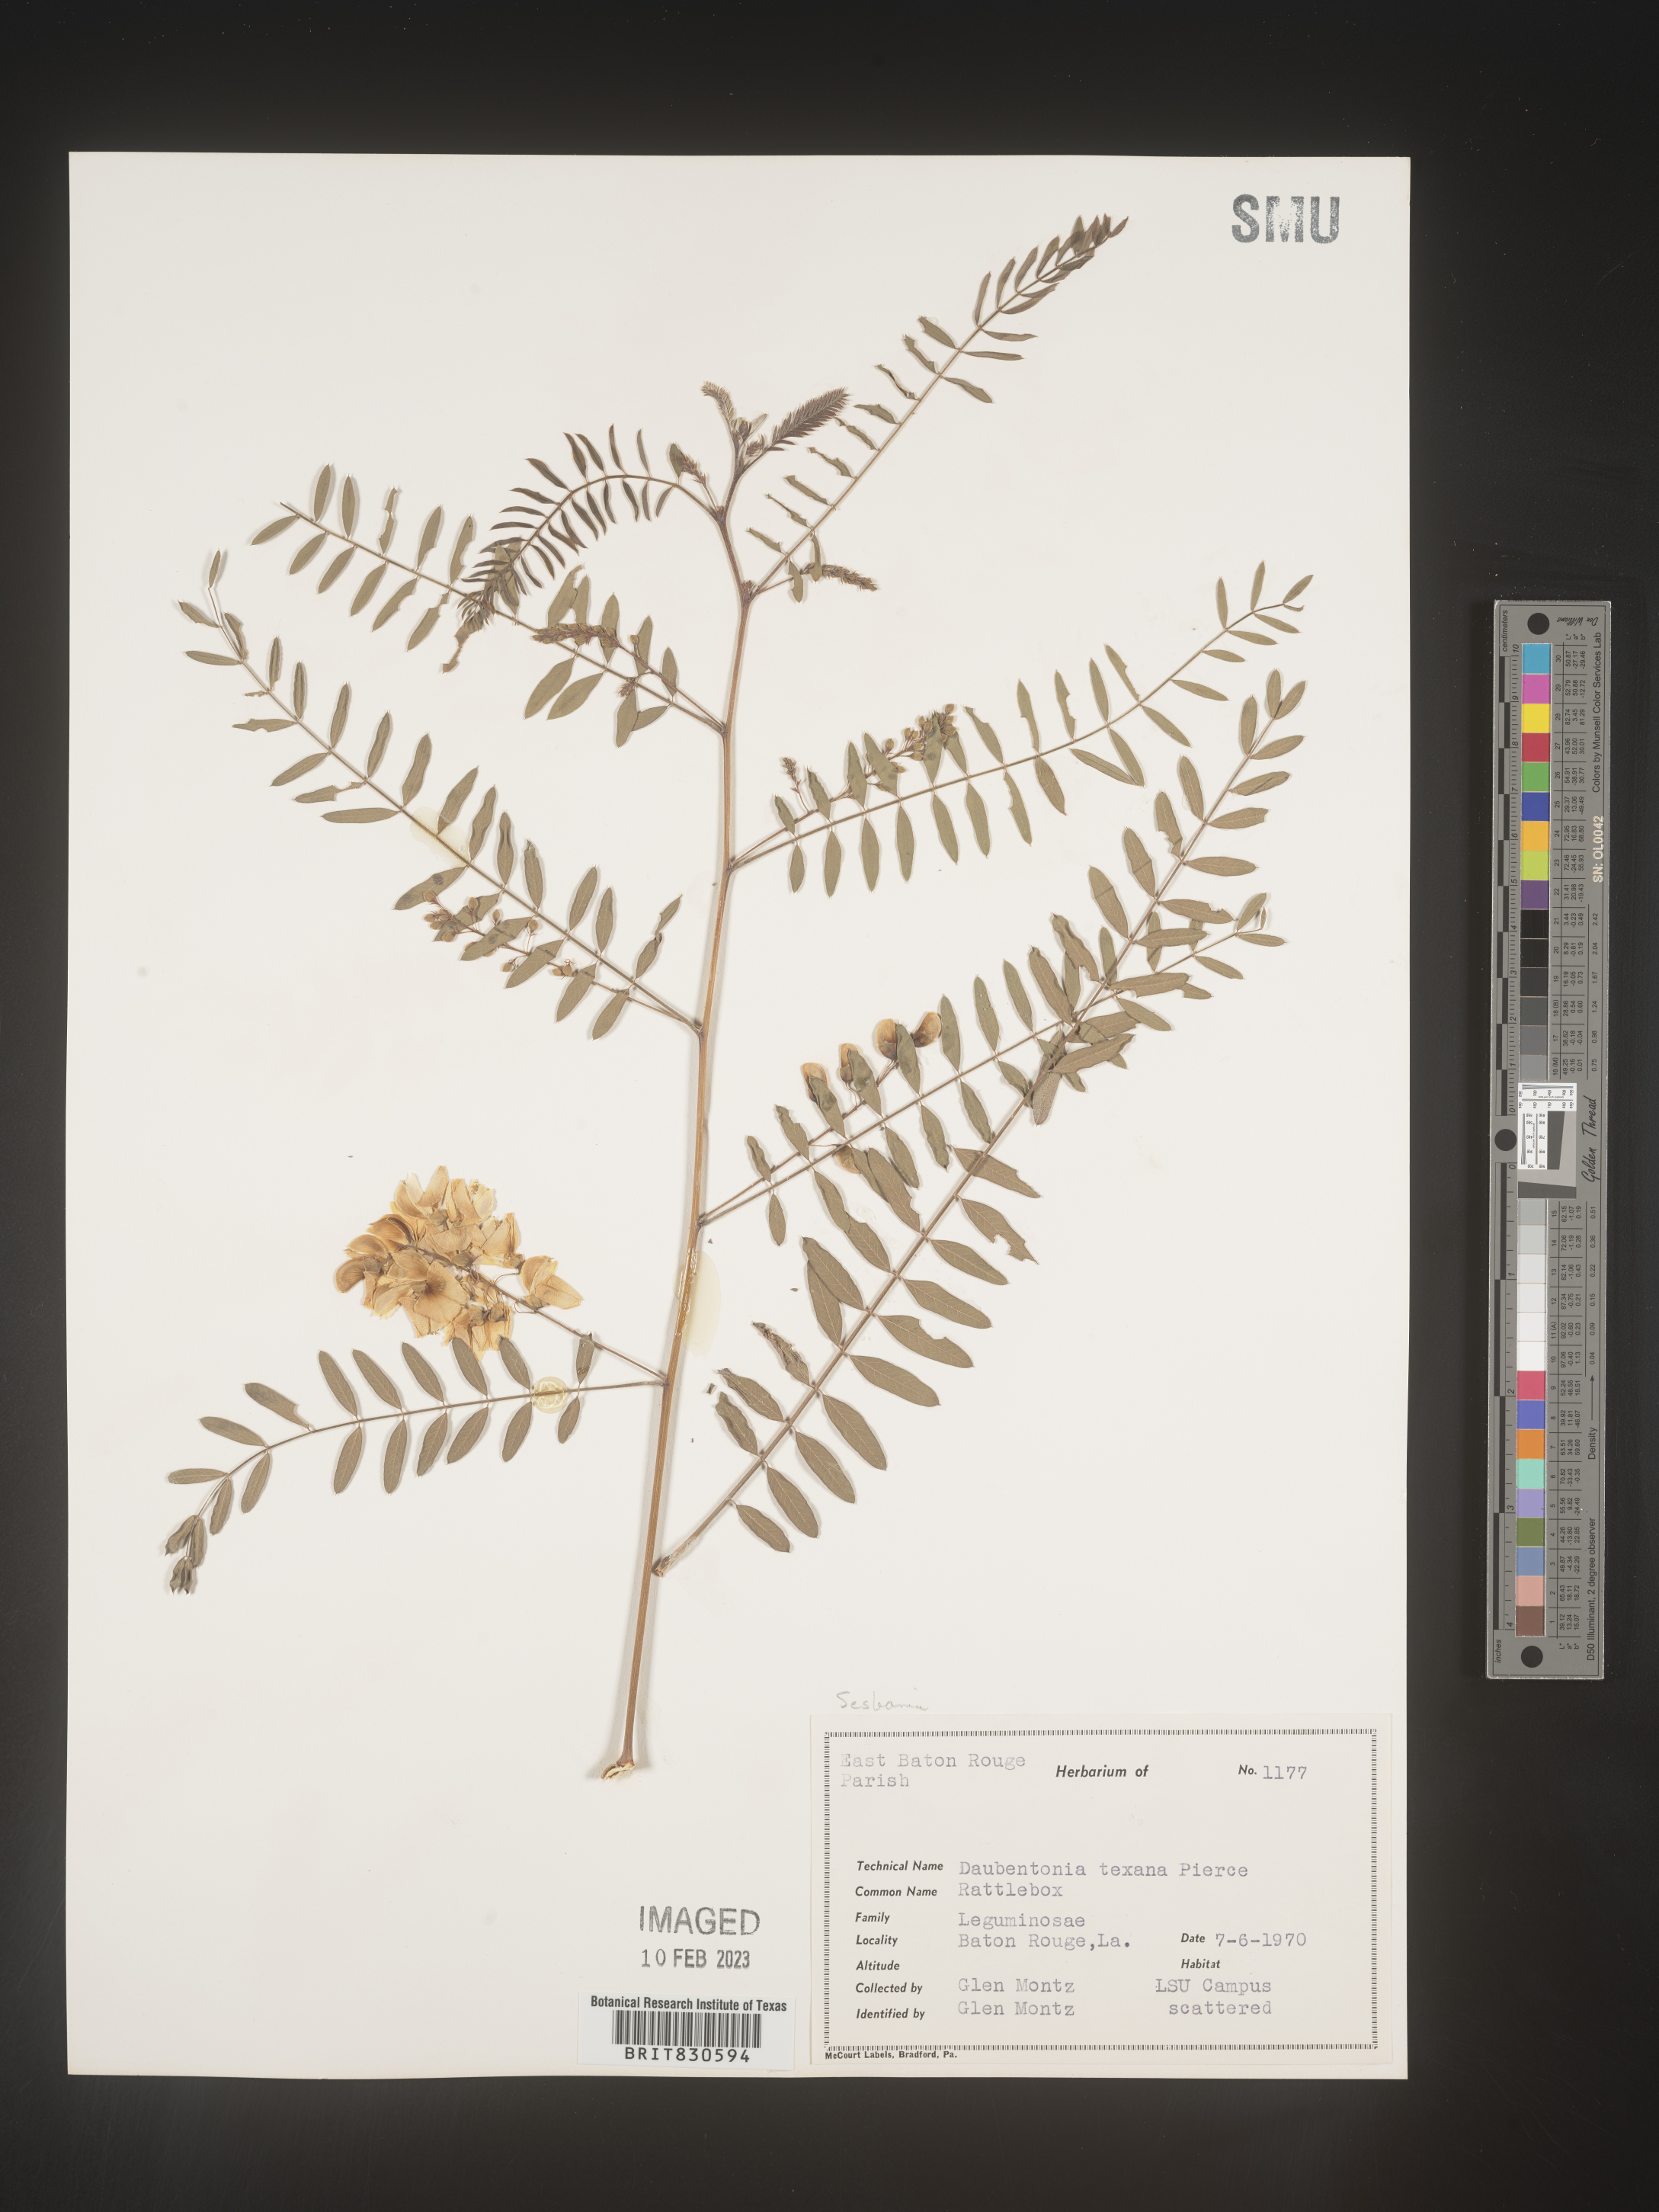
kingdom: Plantae
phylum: Tracheophyta
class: Magnoliopsida
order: Fabales
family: Fabaceae
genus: Sesbania
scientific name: Sesbania drummondii
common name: Poison-bean
